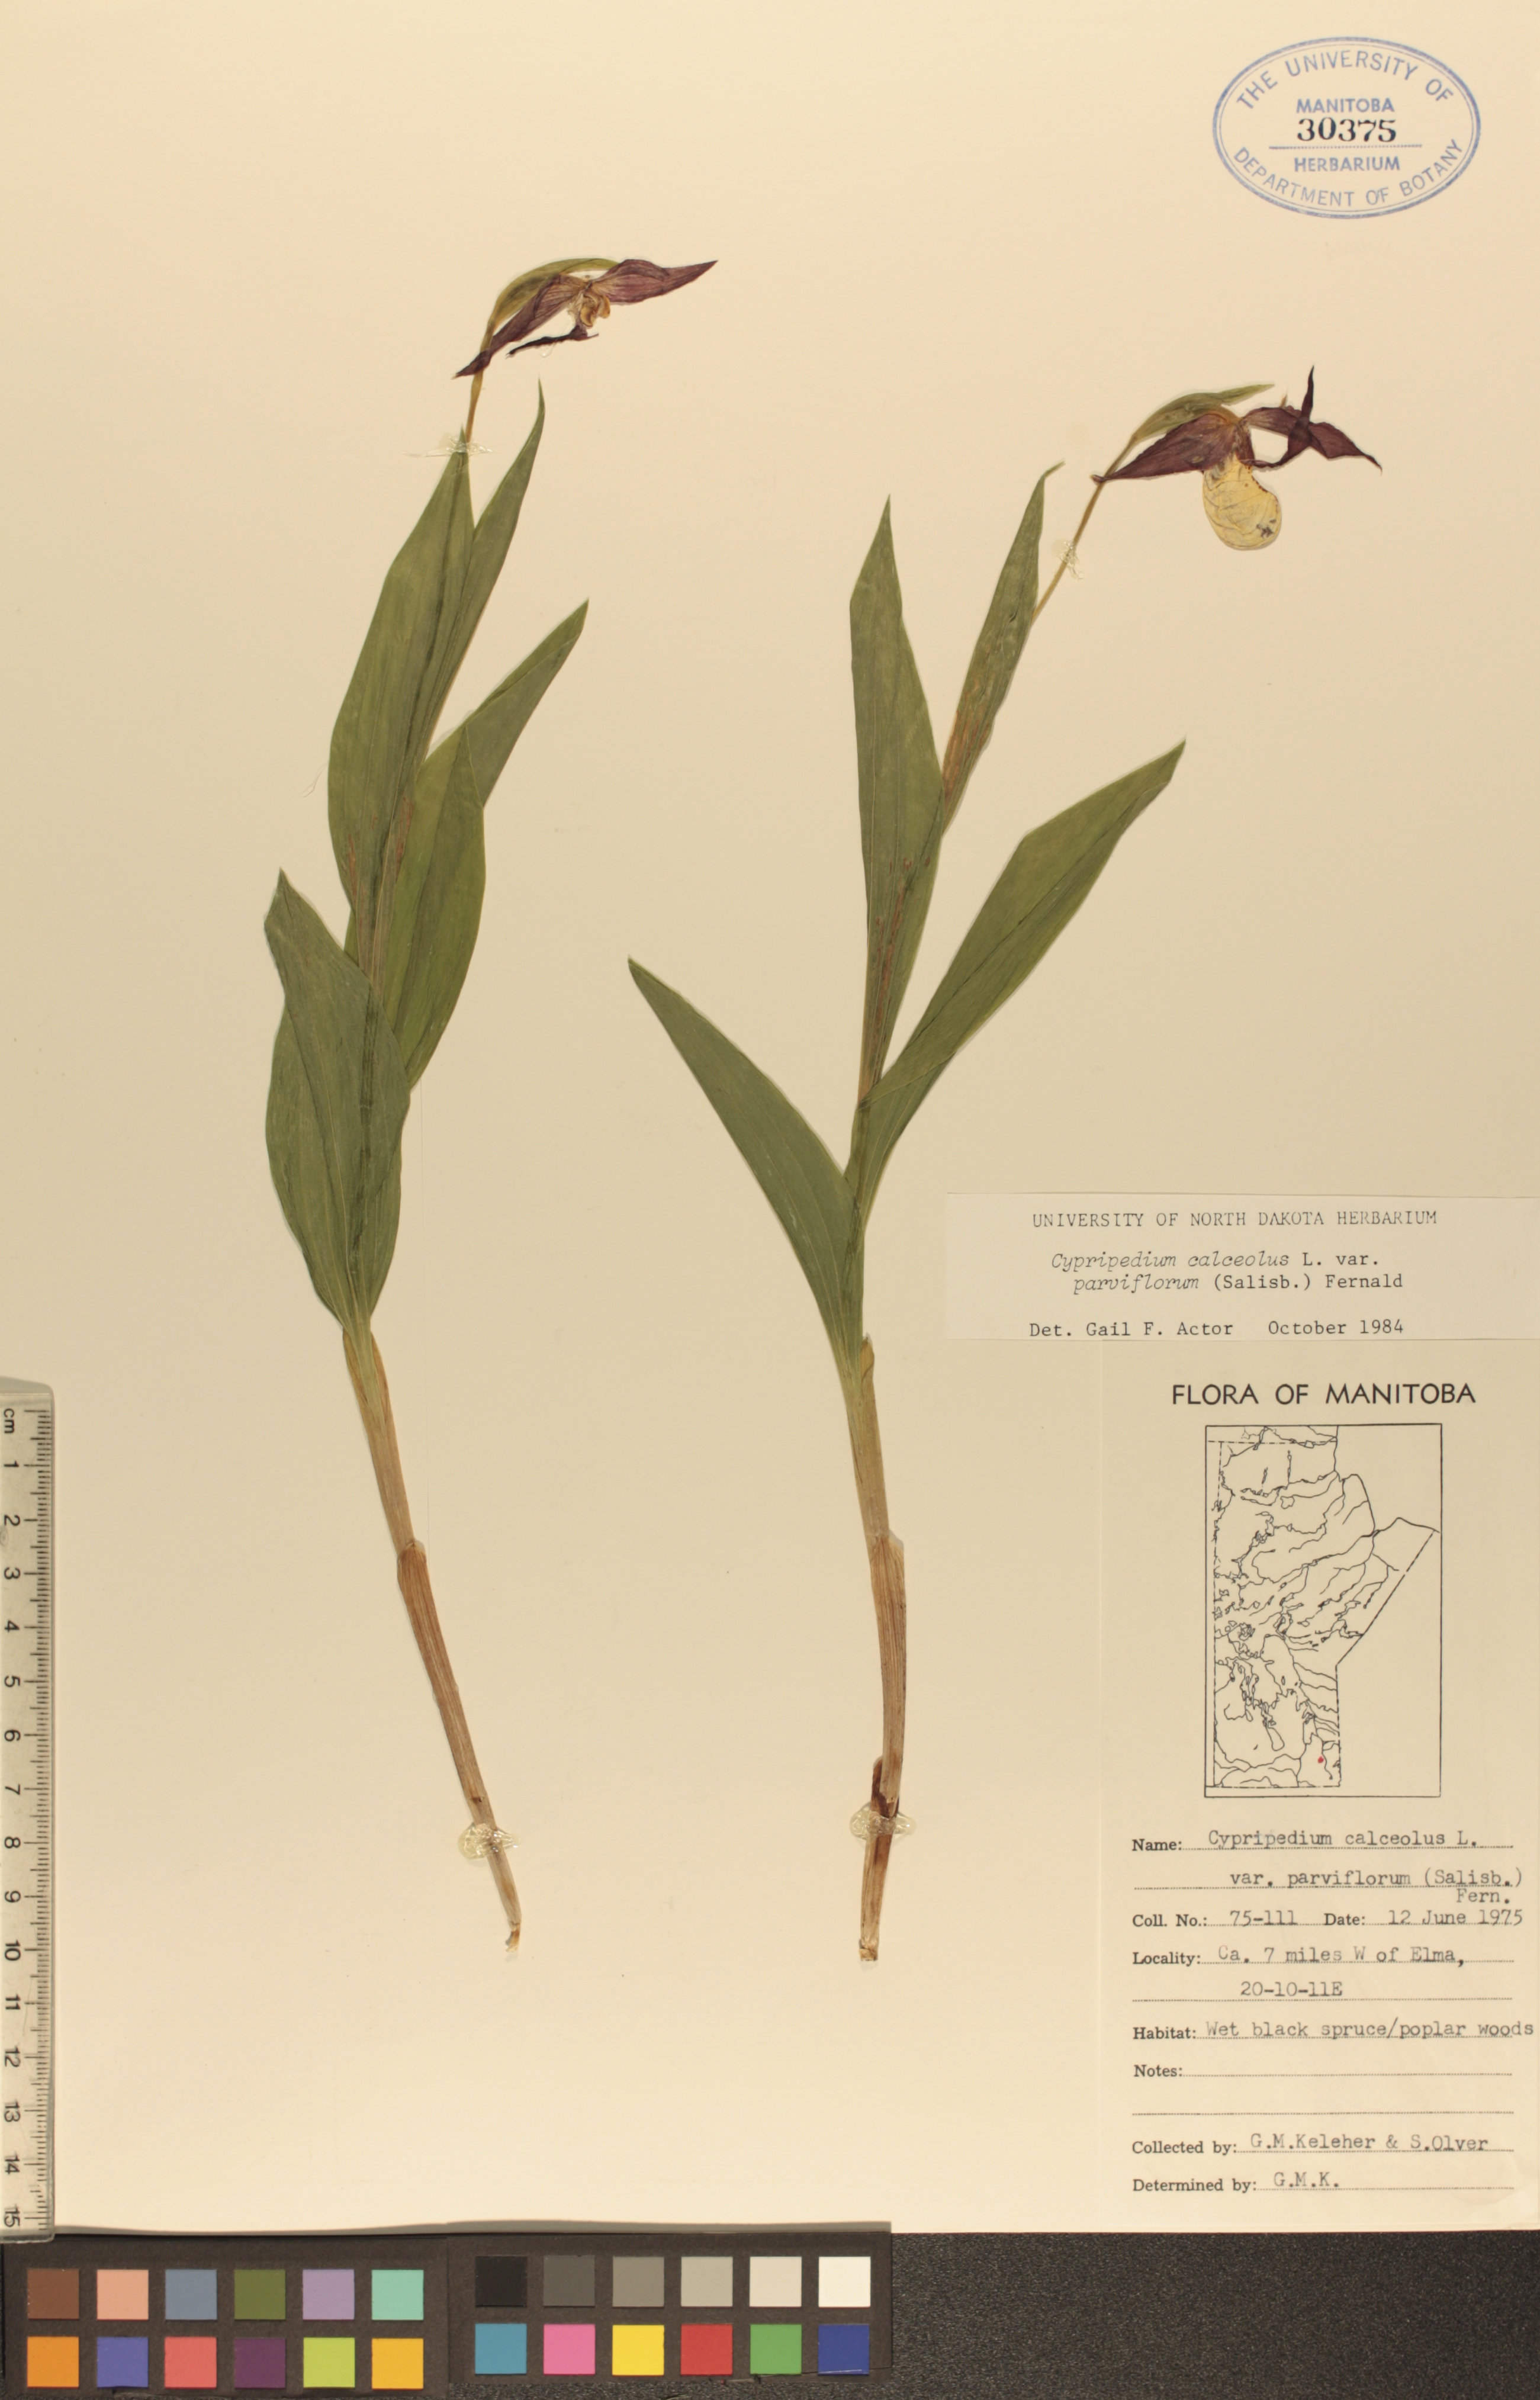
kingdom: Plantae
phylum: Tracheophyta
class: Liliopsida
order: Asparagales
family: Orchidaceae
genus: Cypripedium
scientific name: Cypripedium parviflorum
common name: American yellow lady's-slipper
